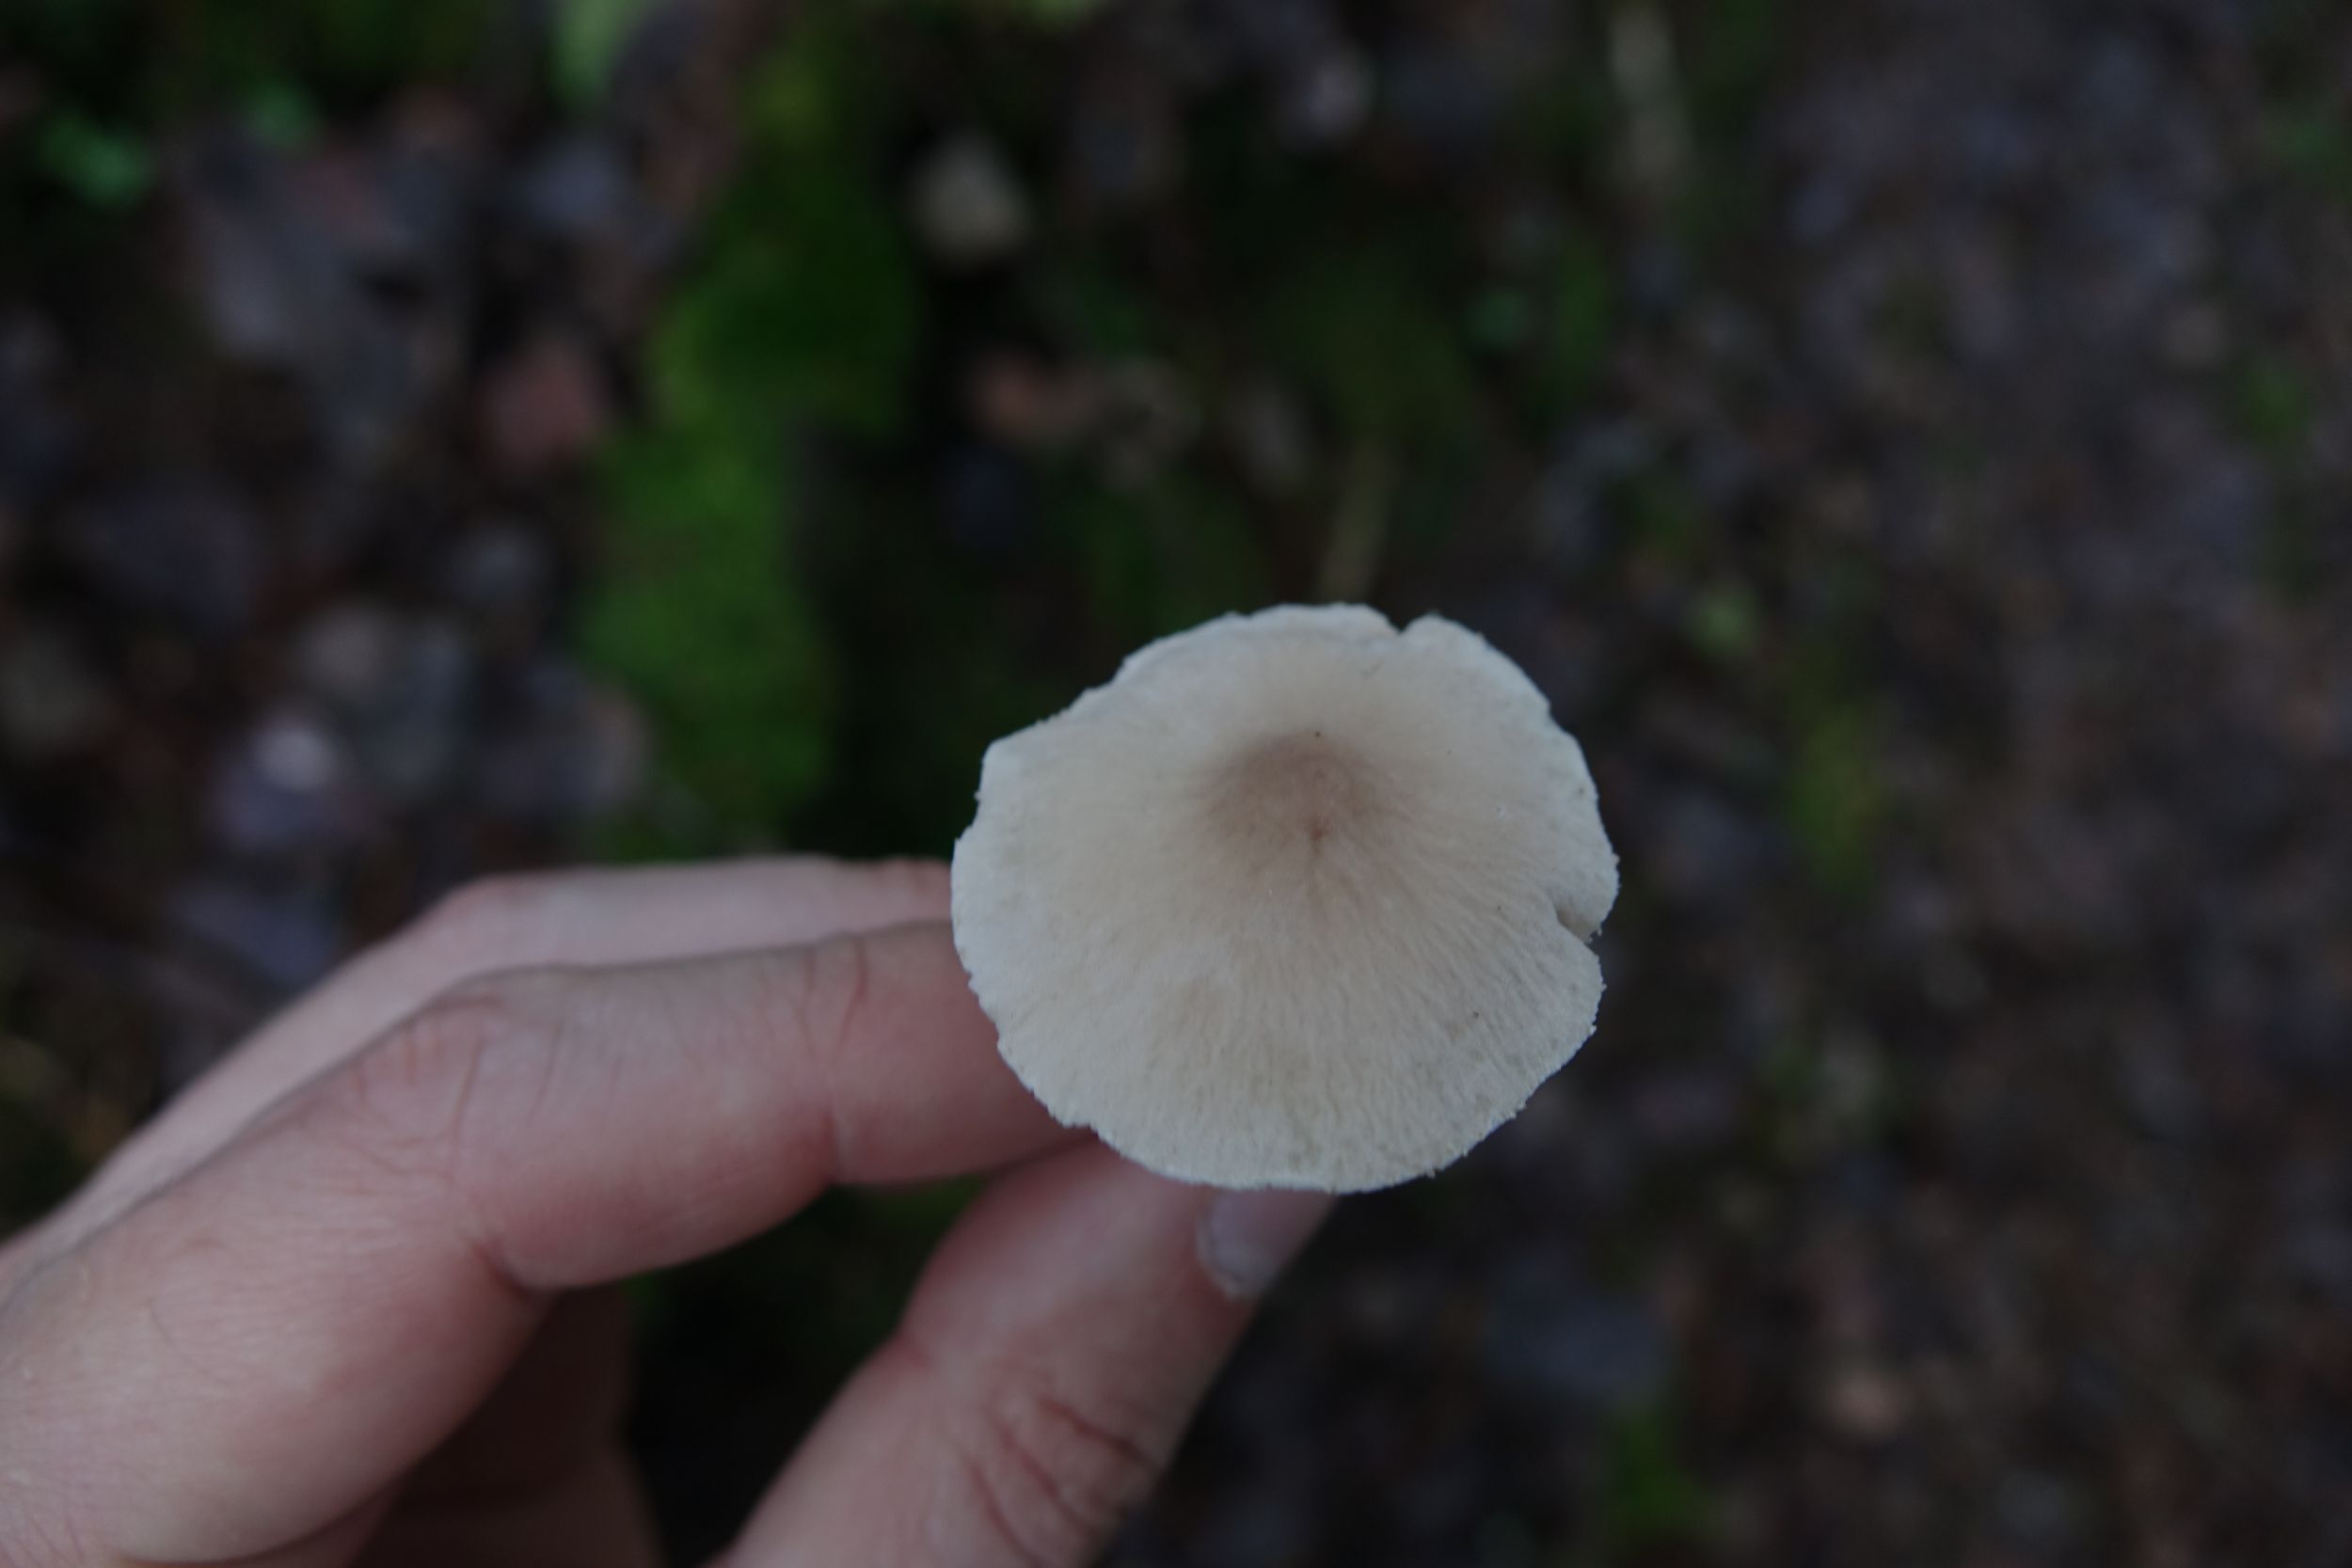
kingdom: Fungi
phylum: Basidiomycota
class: Agaricomycetes
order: Agaricales
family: Tricholomataceae
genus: Cystoderma
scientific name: Cystoderma carcharias
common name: Pearly powdercap
